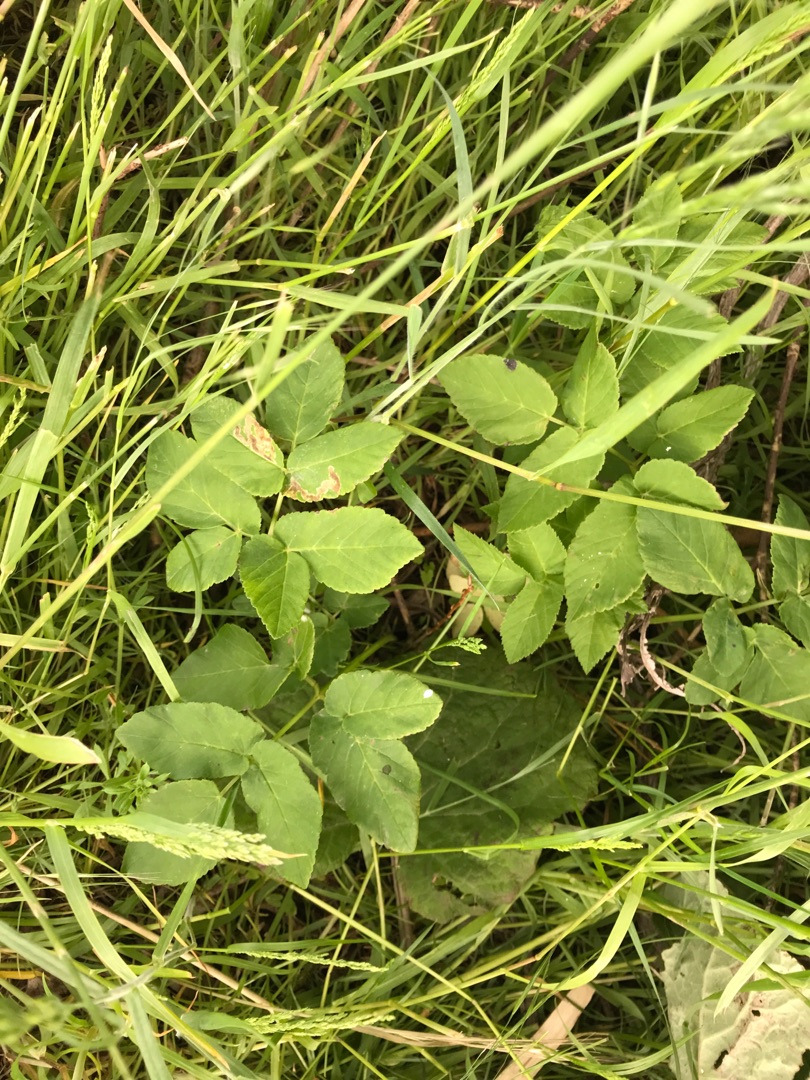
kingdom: Plantae
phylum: Tracheophyta
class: Magnoliopsida
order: Apiales
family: Apiaceae
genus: Aegopodium
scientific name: Aegopodium podagraria
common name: Skvalderkål
